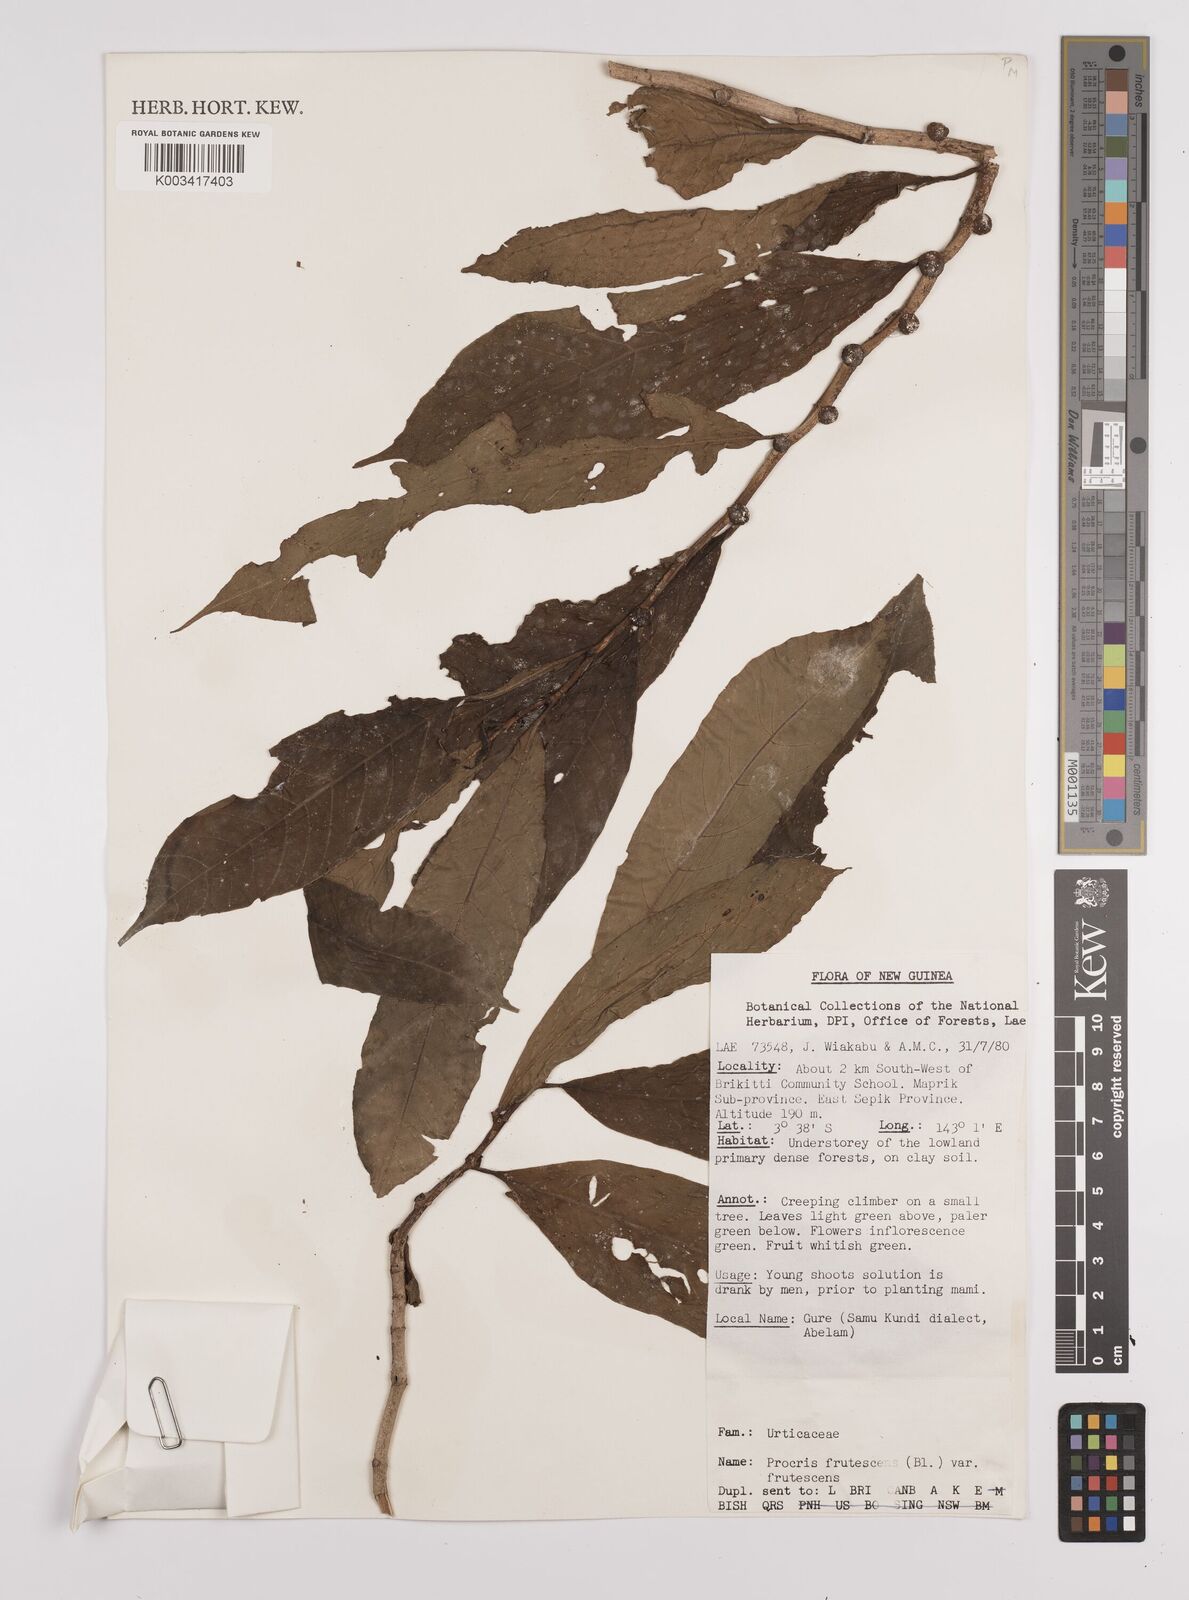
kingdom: Plantae
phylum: Tracheophyta
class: Magnoliopsida
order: Rosales
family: Urticaceae
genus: Procris
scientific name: Procris frutescens
